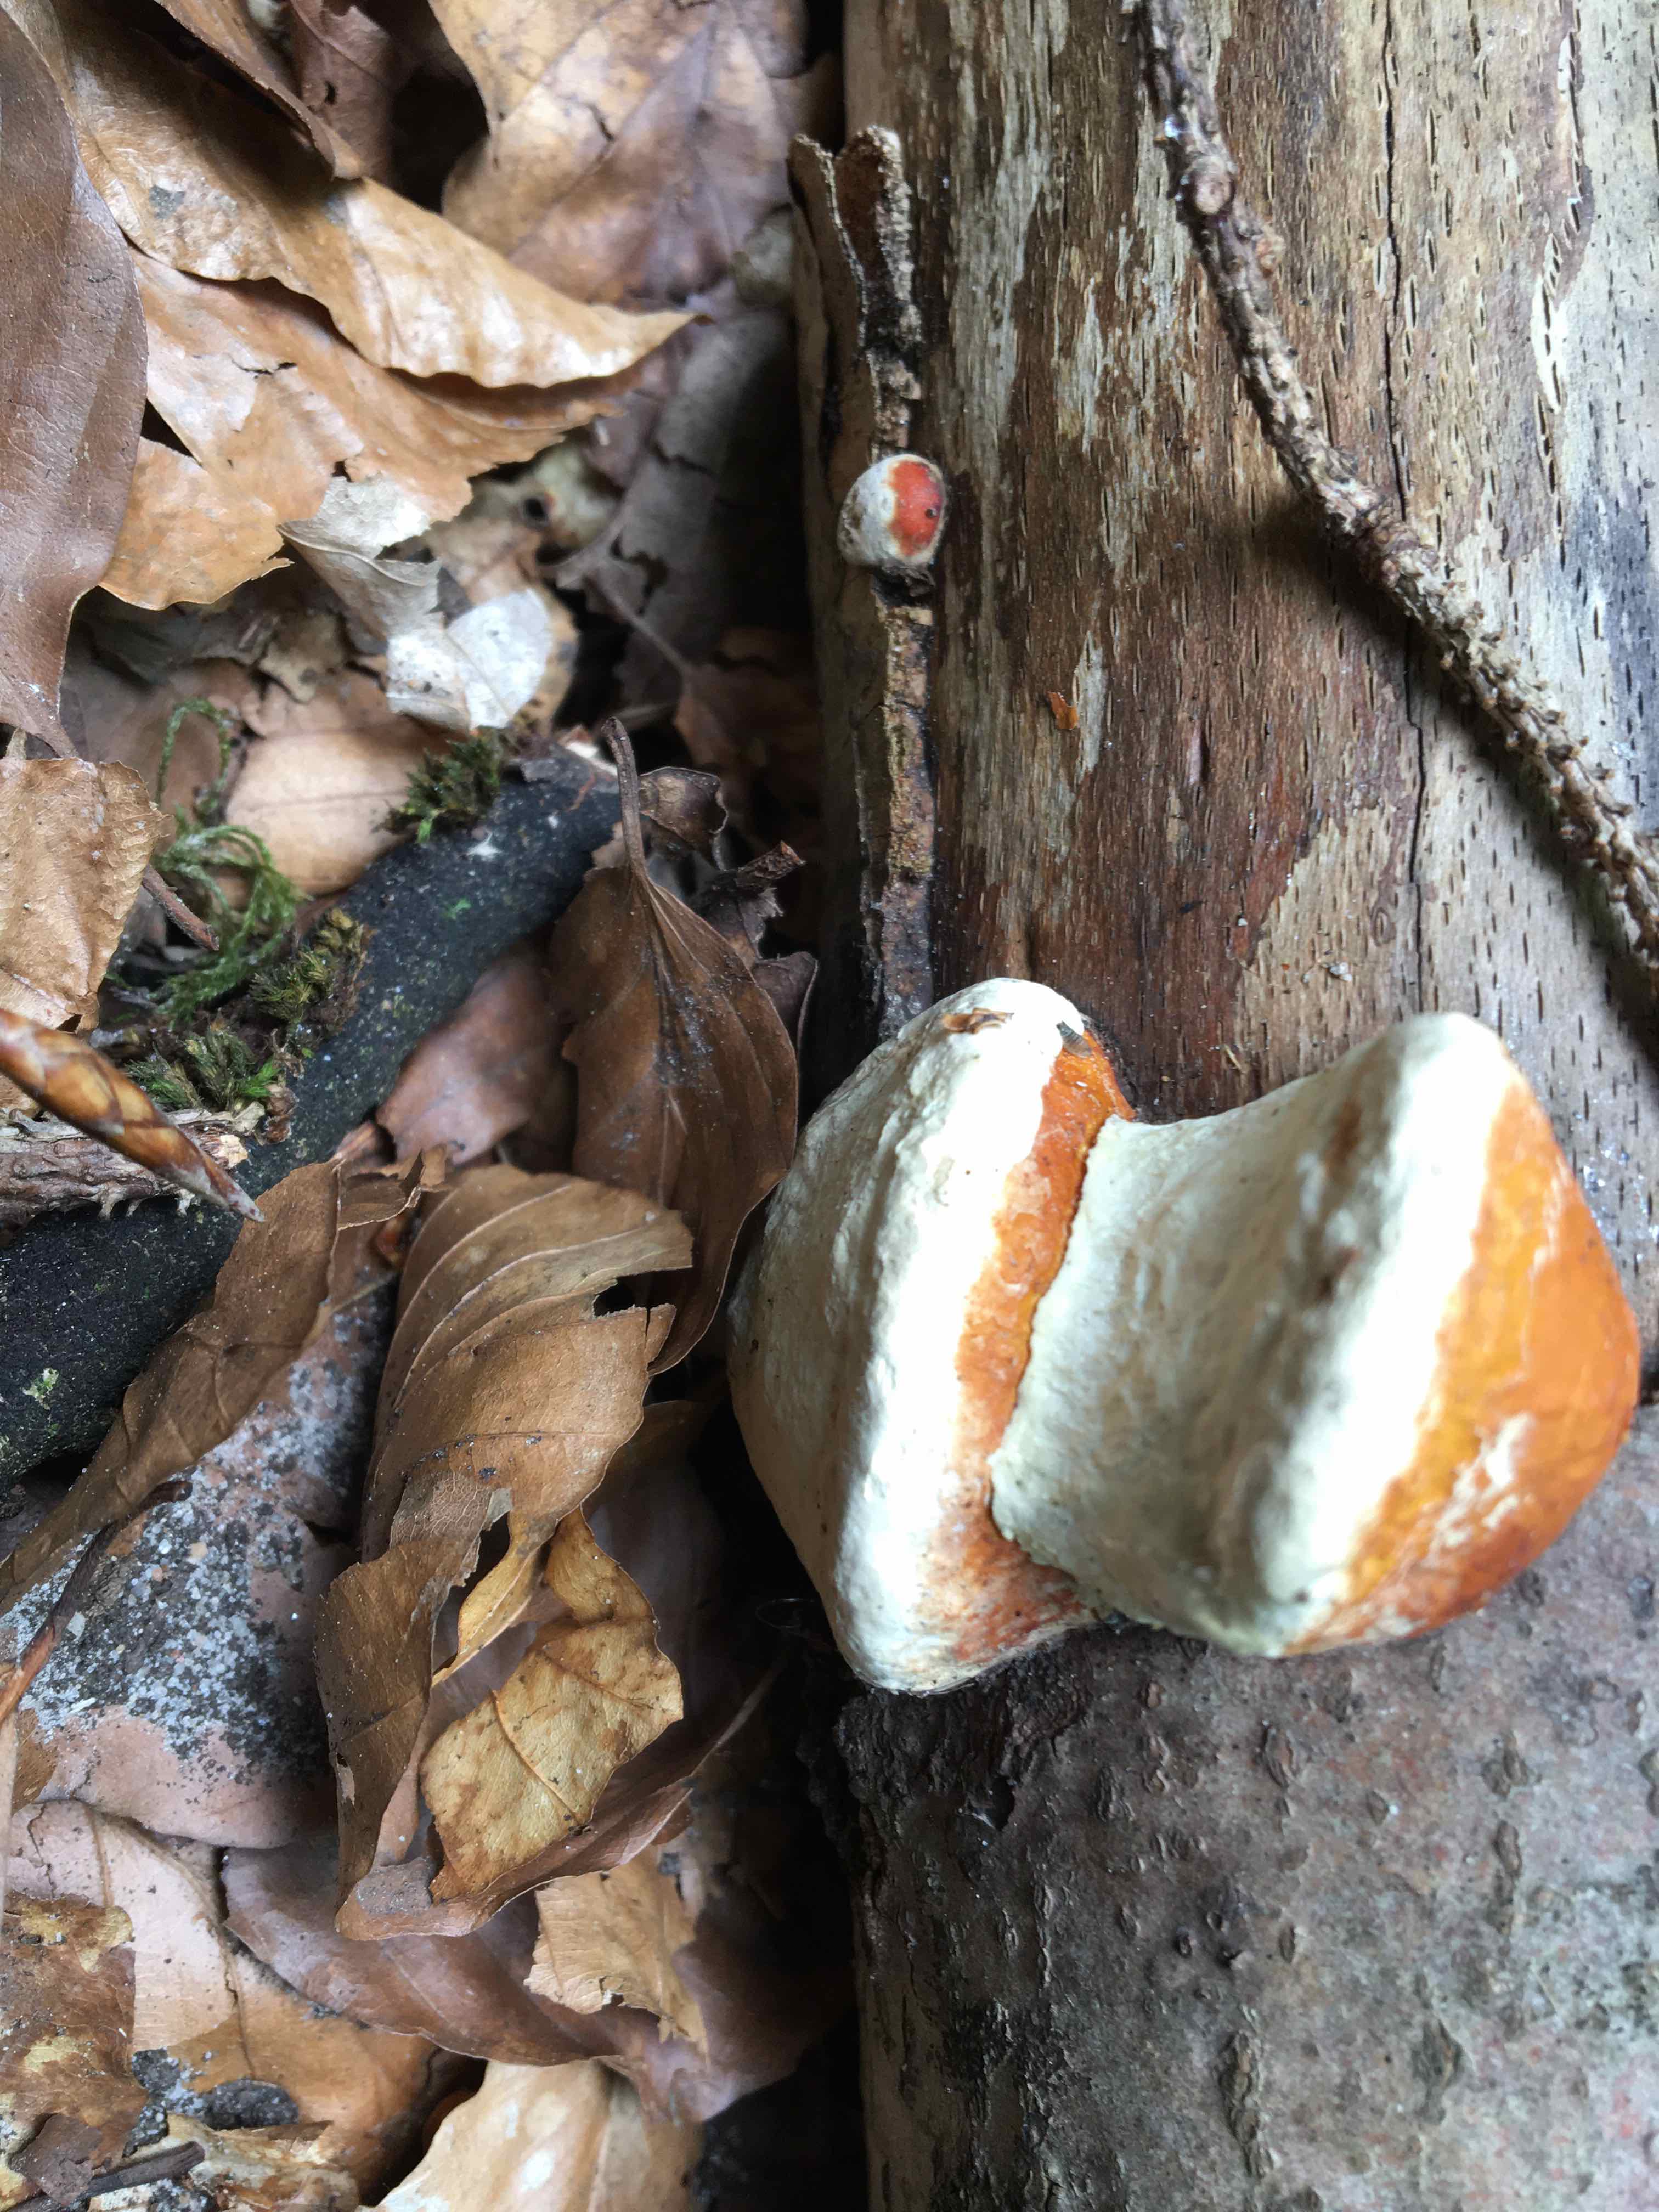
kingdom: Fungi
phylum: Basidiomycota
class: Agaricomycetes
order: Polyporales
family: Fomitopsidaceae
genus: Fomitopsis
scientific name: Fomitopsis pinicola
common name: randbæltet hovporesvamp
